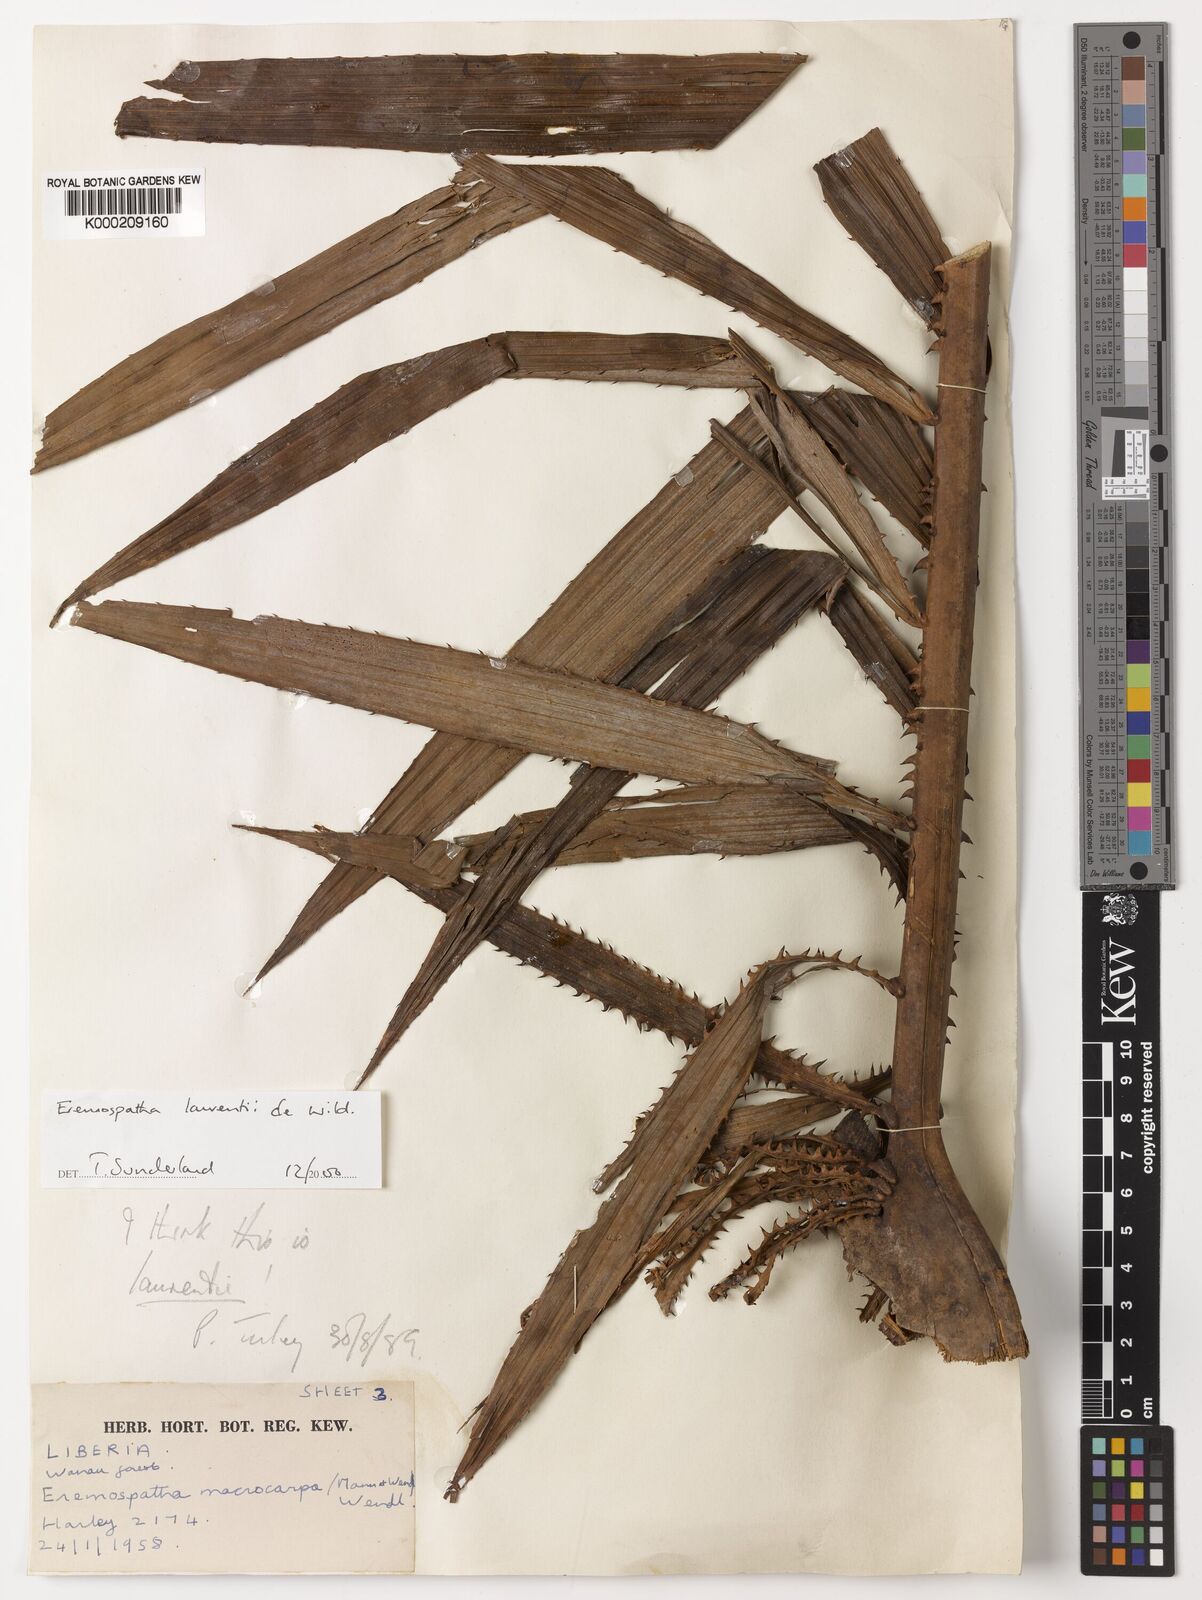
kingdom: Plantae
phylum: Tracheophyta
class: Liliopsida
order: Arecales
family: Arecaceae
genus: Eremospatha
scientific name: Eremospatha laurentii
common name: Rattan palm
